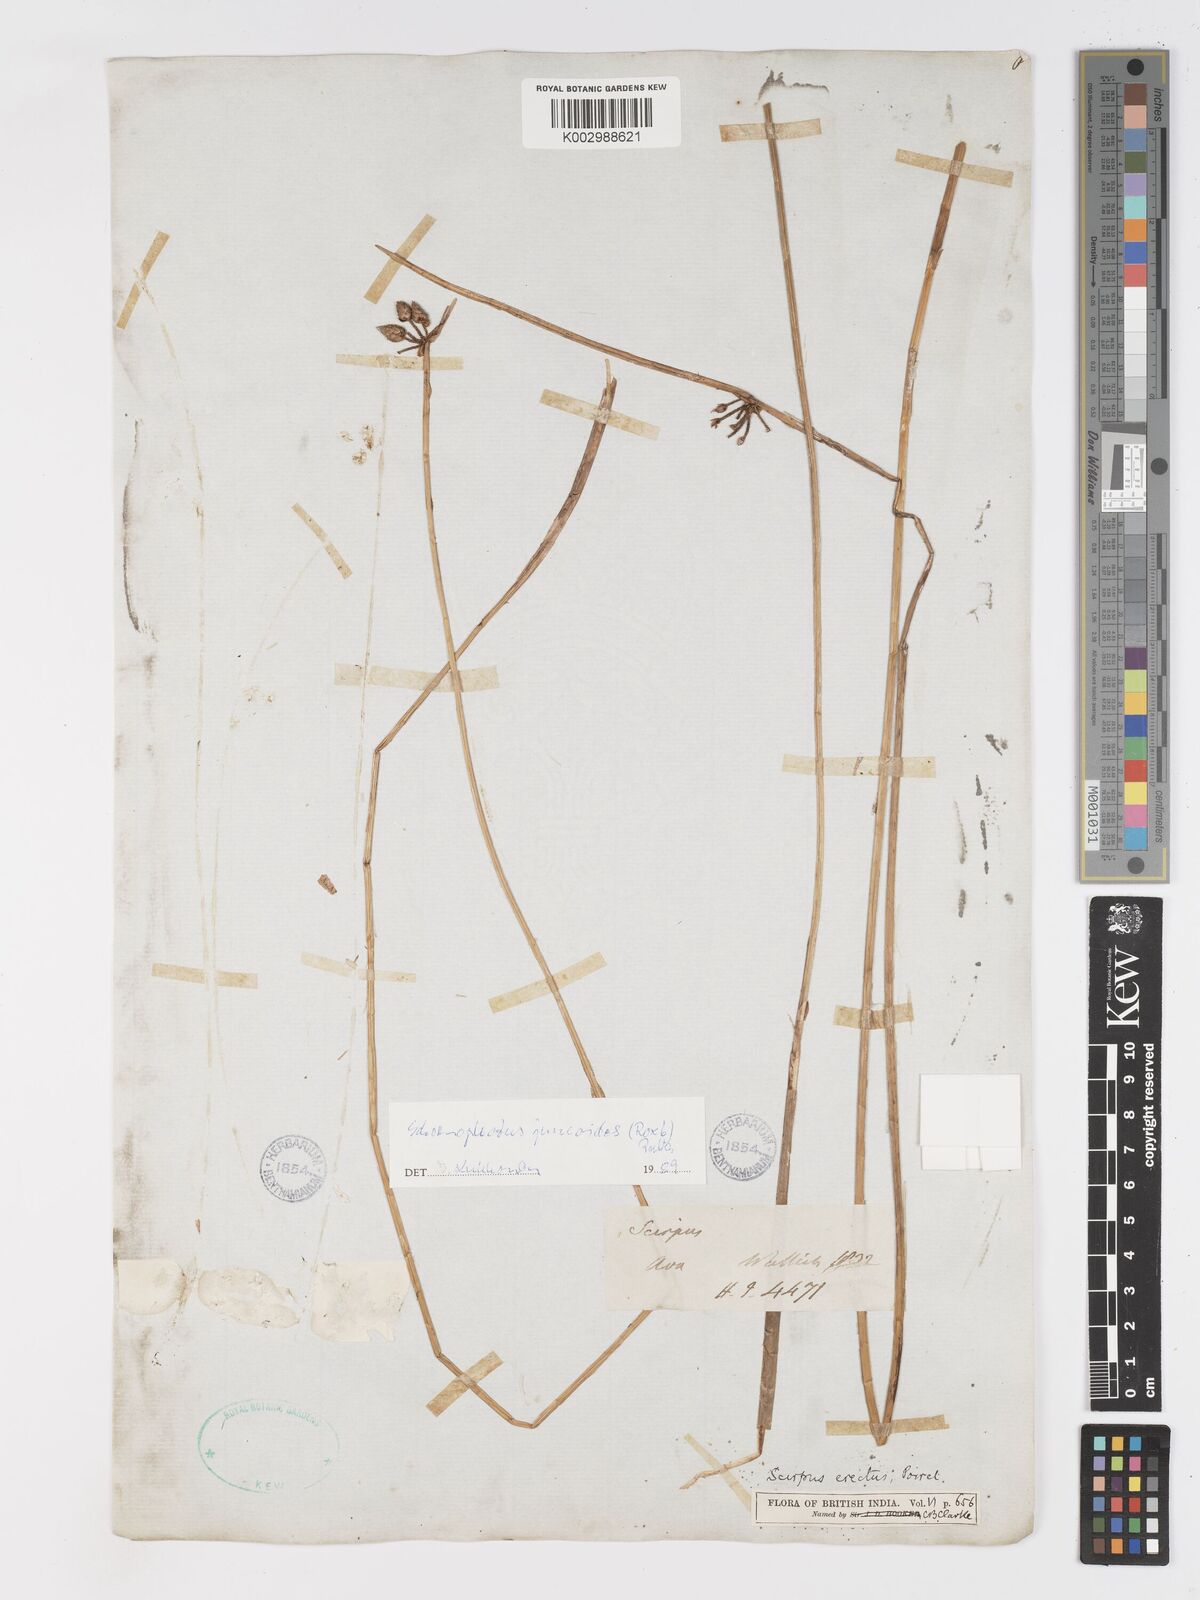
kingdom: Plantae
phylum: Tracheophyta
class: Liliopsida
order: Poales
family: Cyperaceae
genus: Schoenoplectiella
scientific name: Schoenoplectiella juncoides
